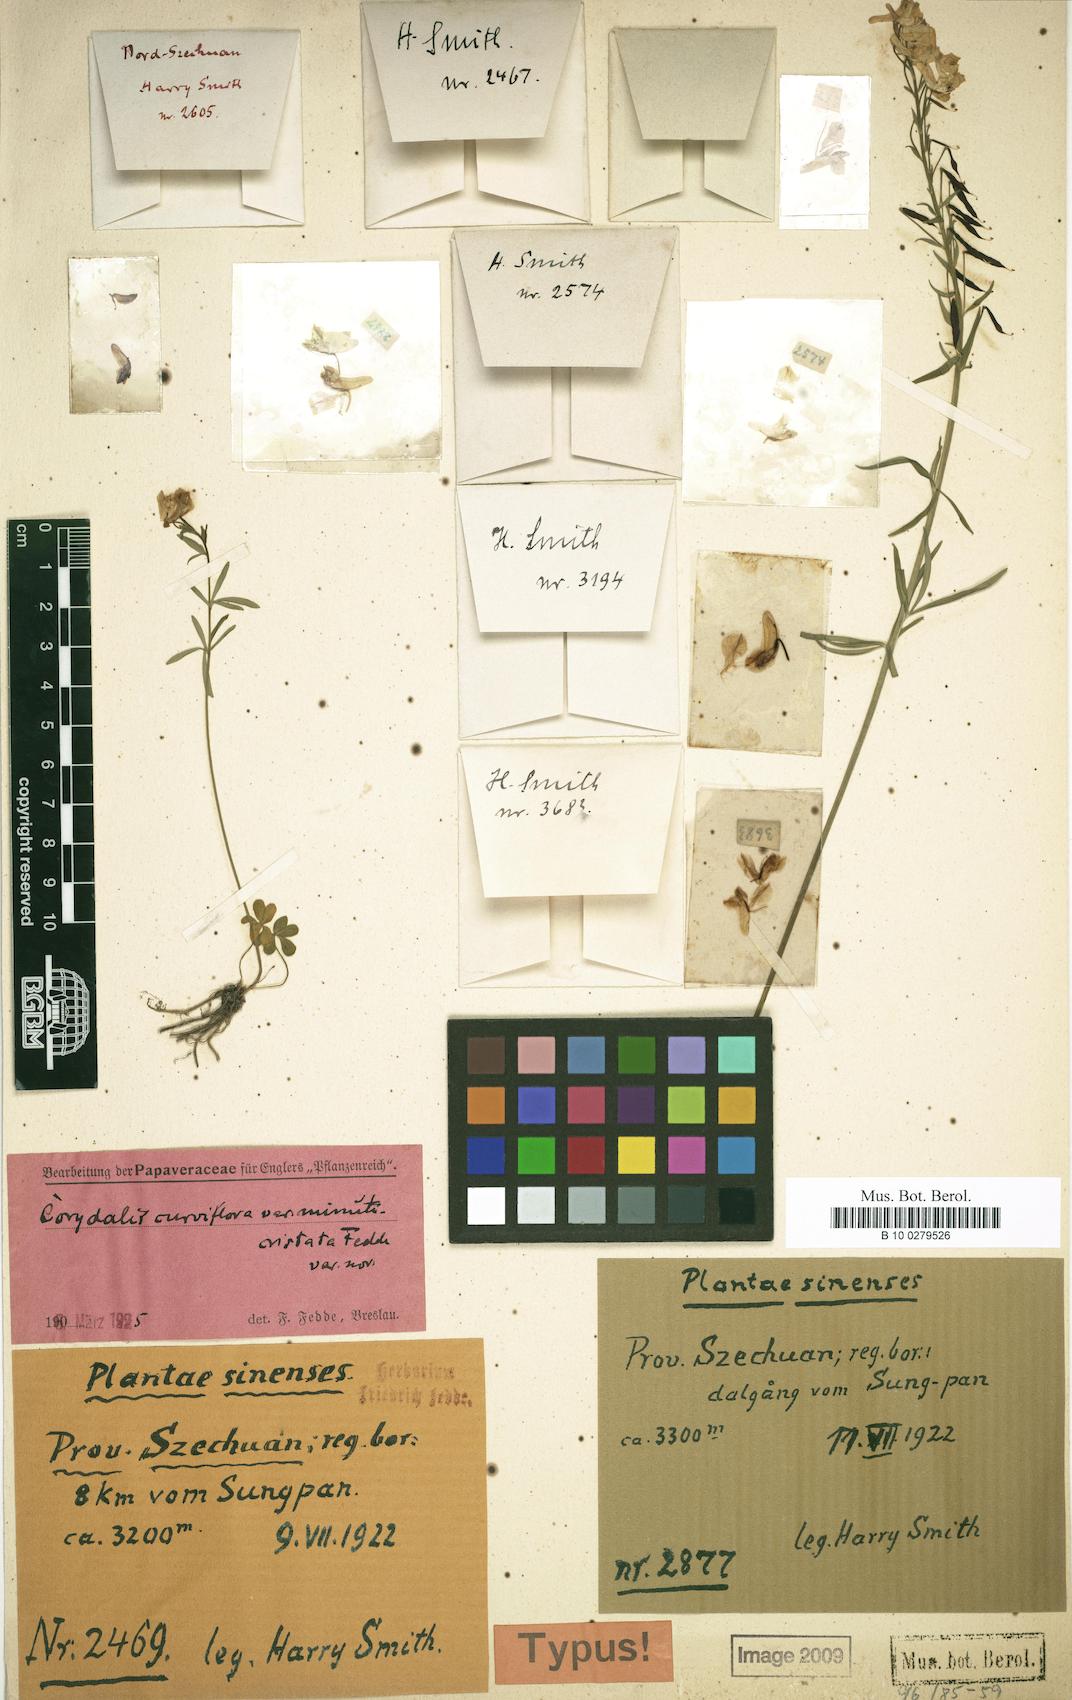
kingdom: Plantae
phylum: Tracheophyta
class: Magnoliopsida
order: Ranunculales
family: Papaveraceae
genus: Corydalis
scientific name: Corydalis cytisiflora
